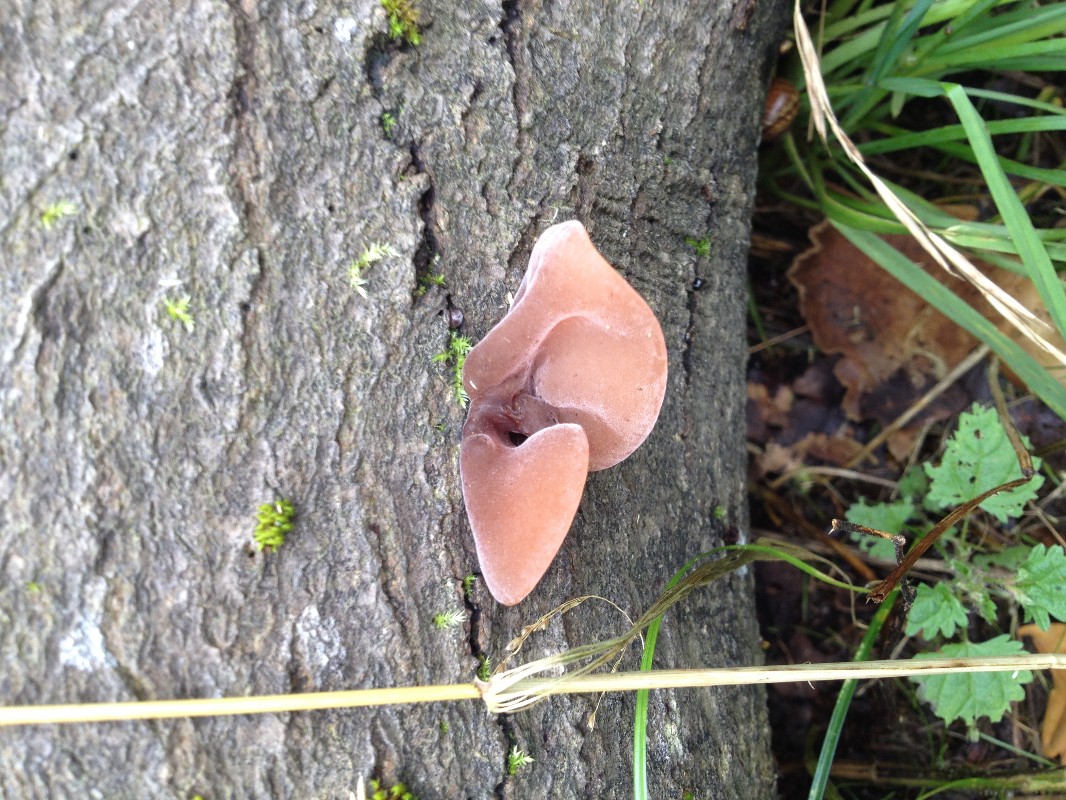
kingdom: Fungi
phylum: Basidiomycota
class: Agaricomycetes
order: Auriculariales
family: Auriculariaceae
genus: Auricularia
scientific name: Auricularia auricula-judae
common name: almindelig judasøre
